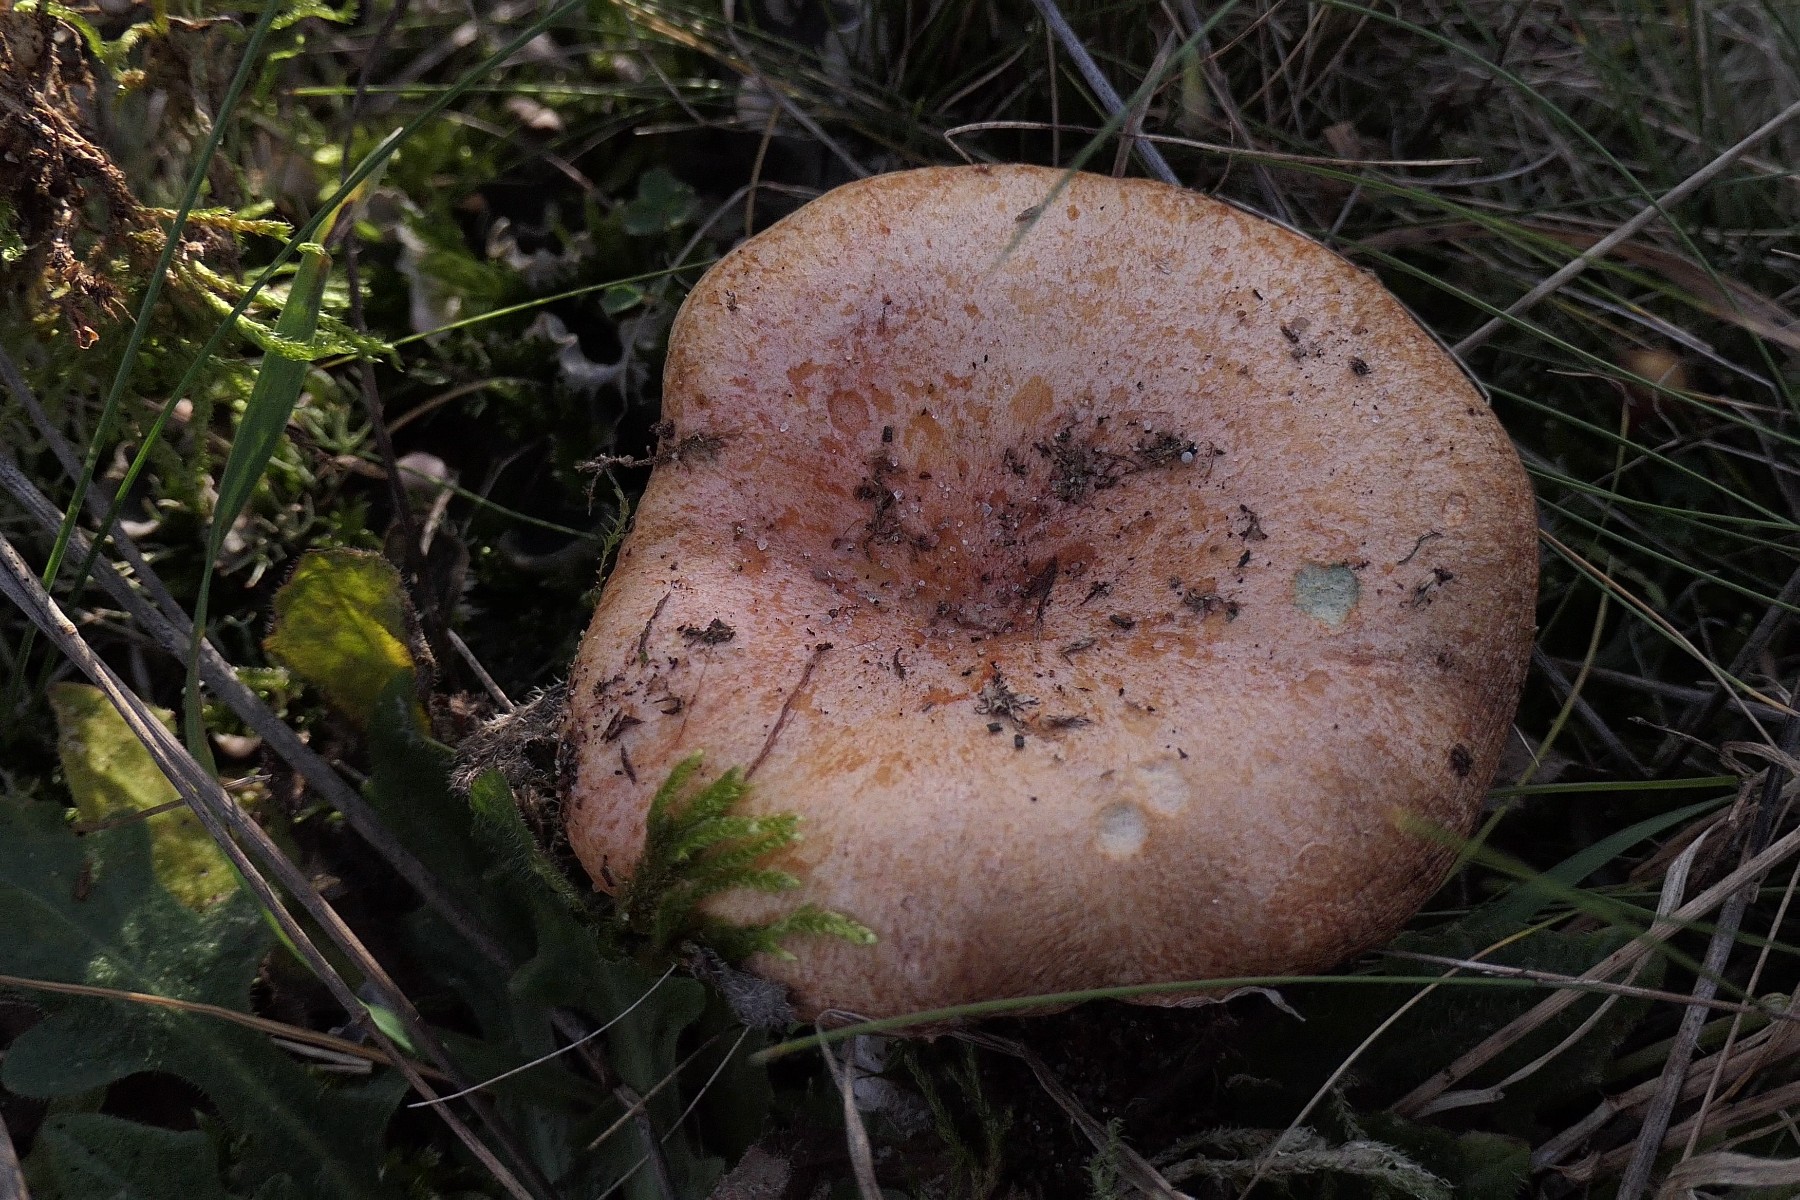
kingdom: Fungi
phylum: Basidiomycota
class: Agaricomycetes
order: Russulales
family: Russulaceae
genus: Lactarius
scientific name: Lactarius deliciosus
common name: velsmagende mælkehat
